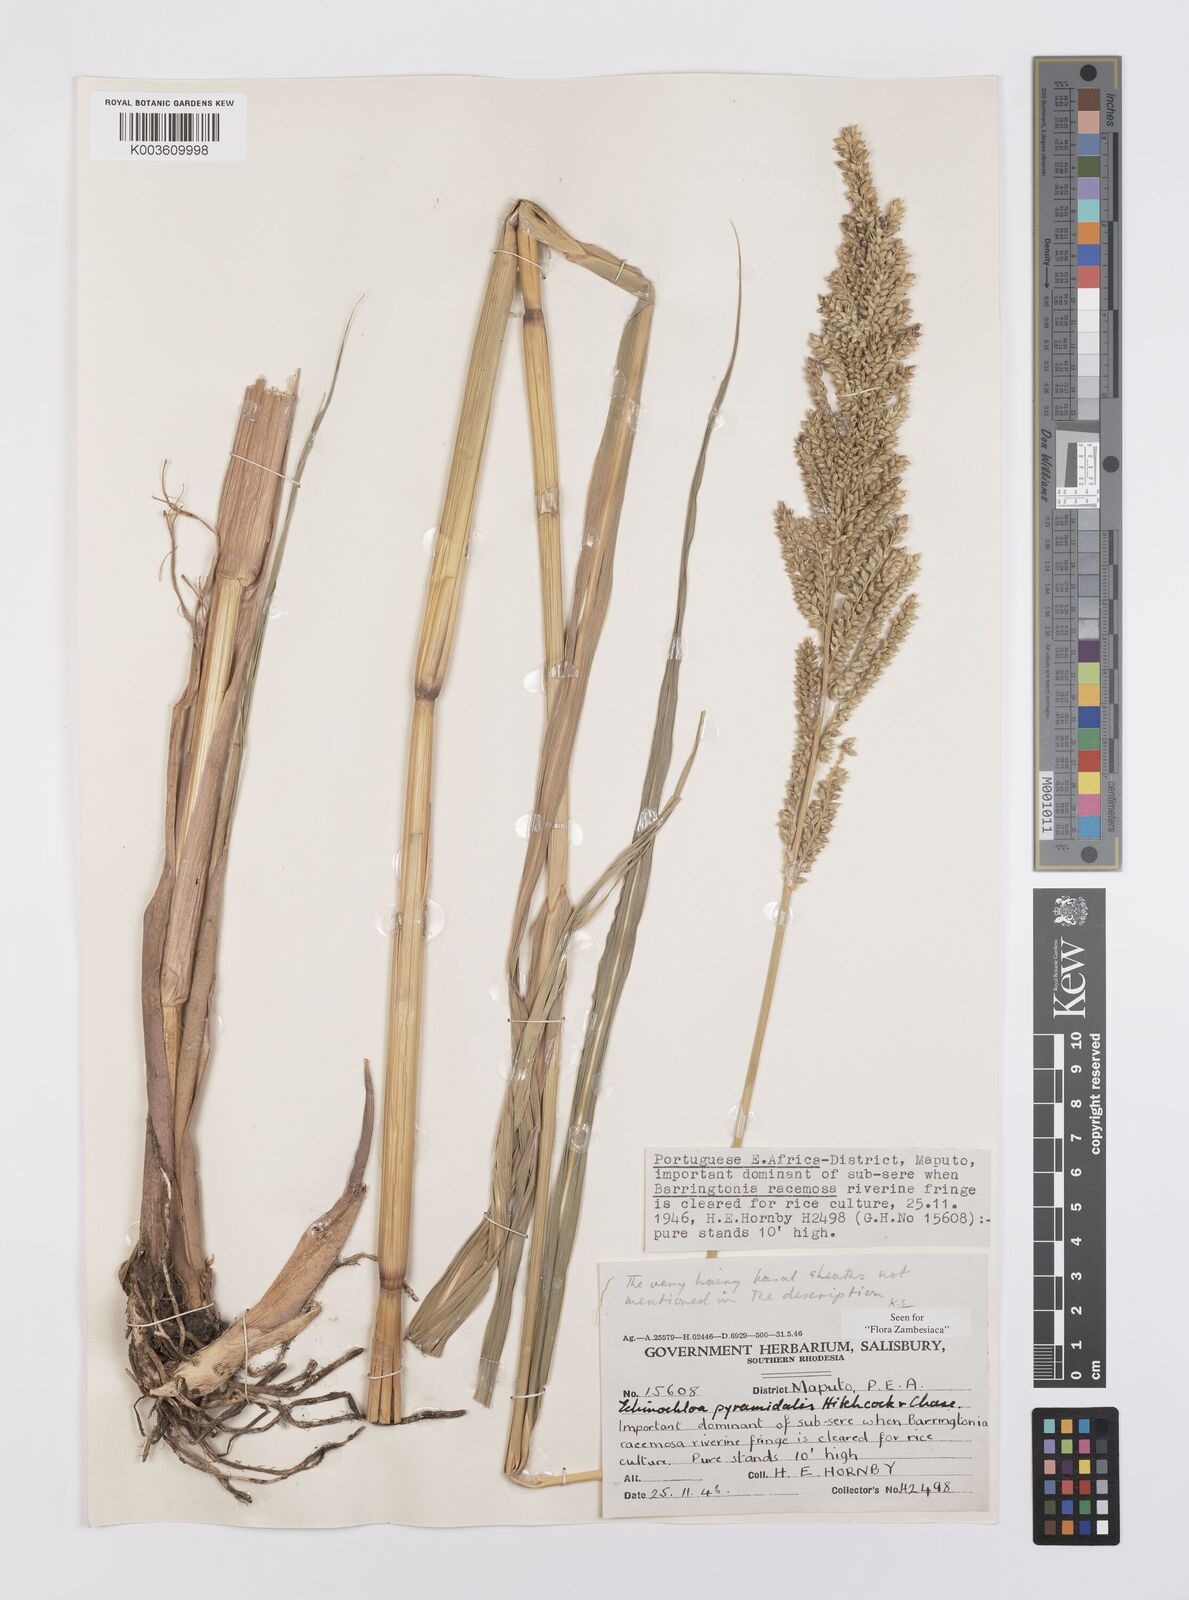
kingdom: Plantae
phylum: Tracheophyta
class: Liliopsida
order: Poales
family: Poaceae
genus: Echinochloa
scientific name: Echinochloa pyramidalis
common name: Antelope grass
